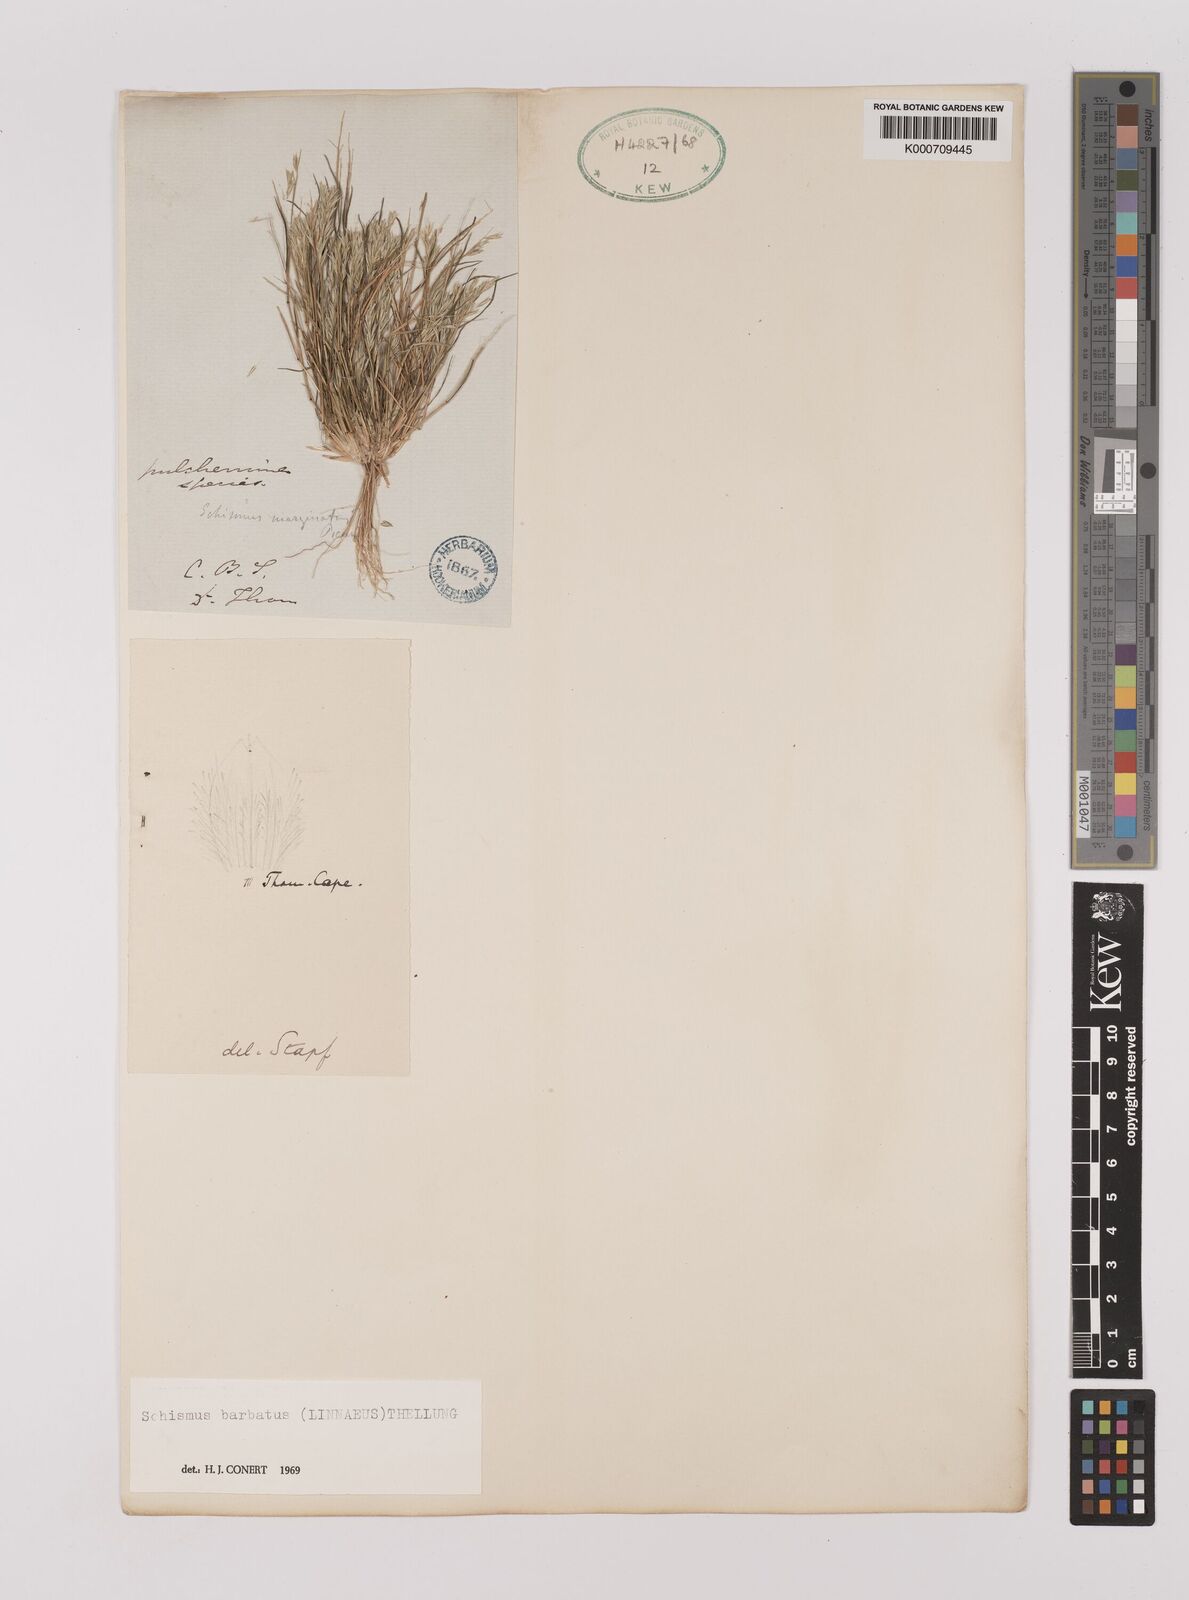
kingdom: Plantae
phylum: Tracheophyta
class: Liliopsida
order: Poales
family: Poaceae
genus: Schismus
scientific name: Schismus barbatus
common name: Kelch-grass
